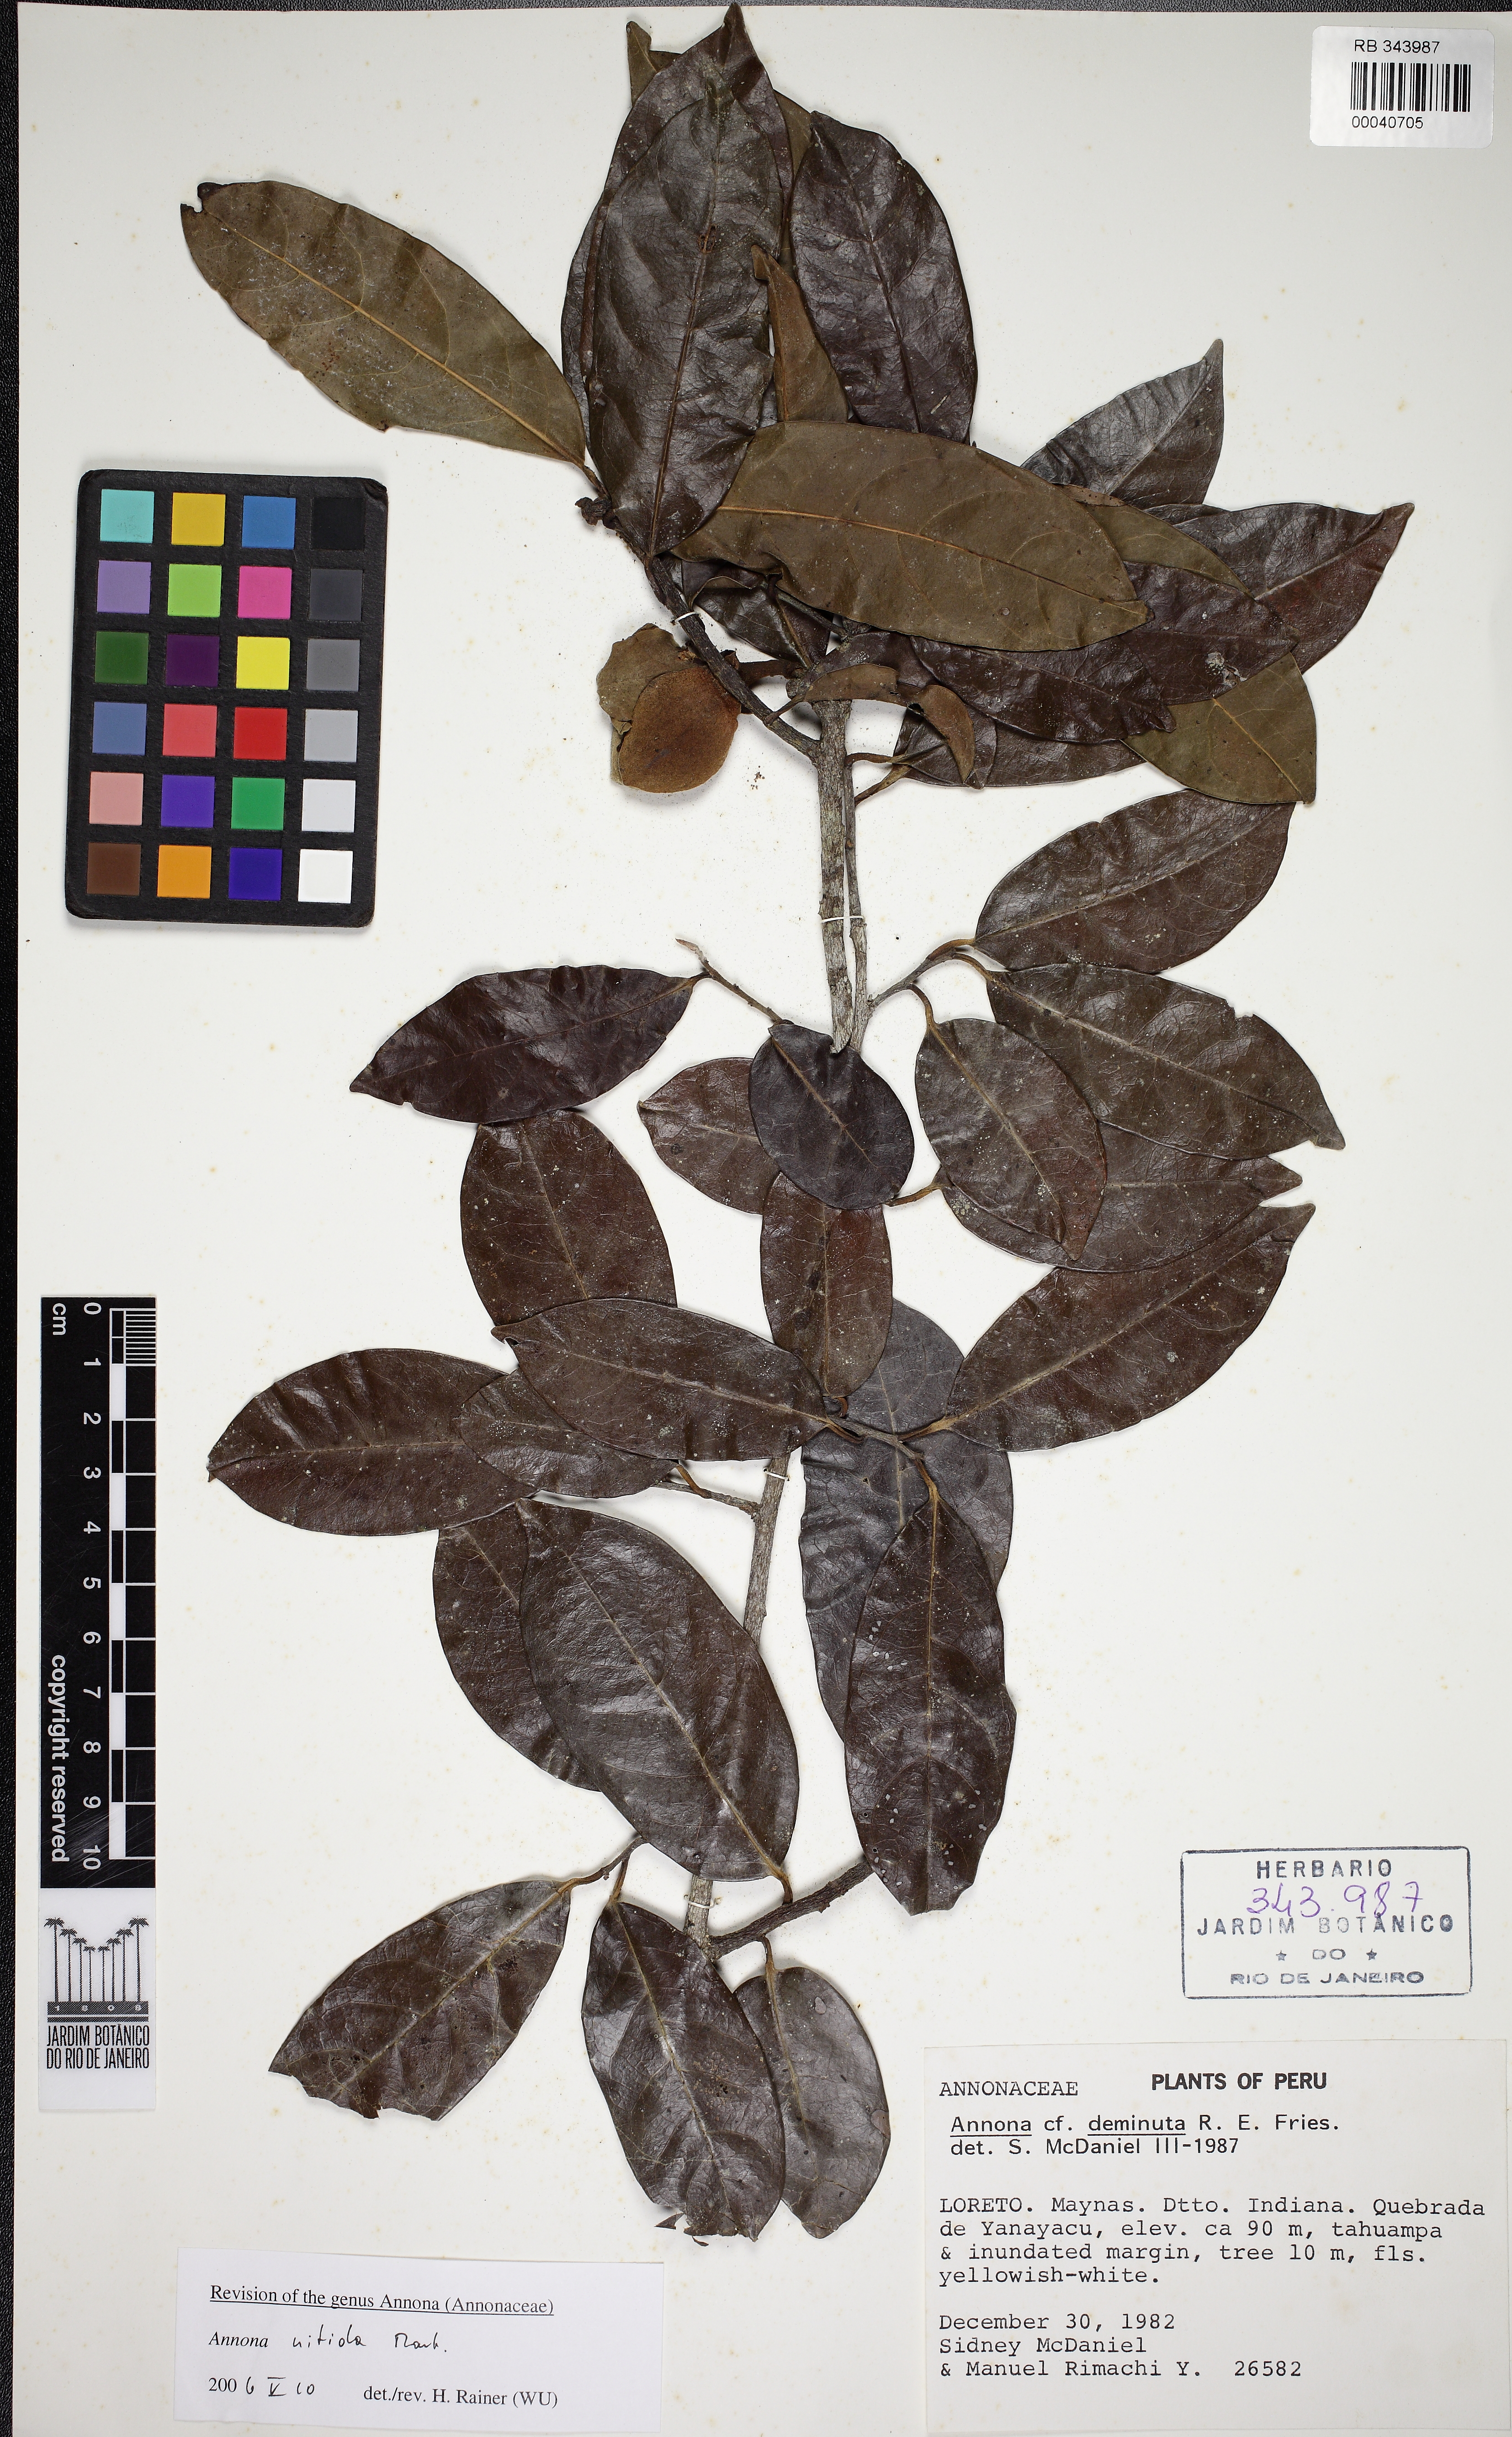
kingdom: Plantae
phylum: Tracheophyta
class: Magnoliopsida
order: Magnoliales
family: Annonaceae
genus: Annona
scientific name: Annona nitida
